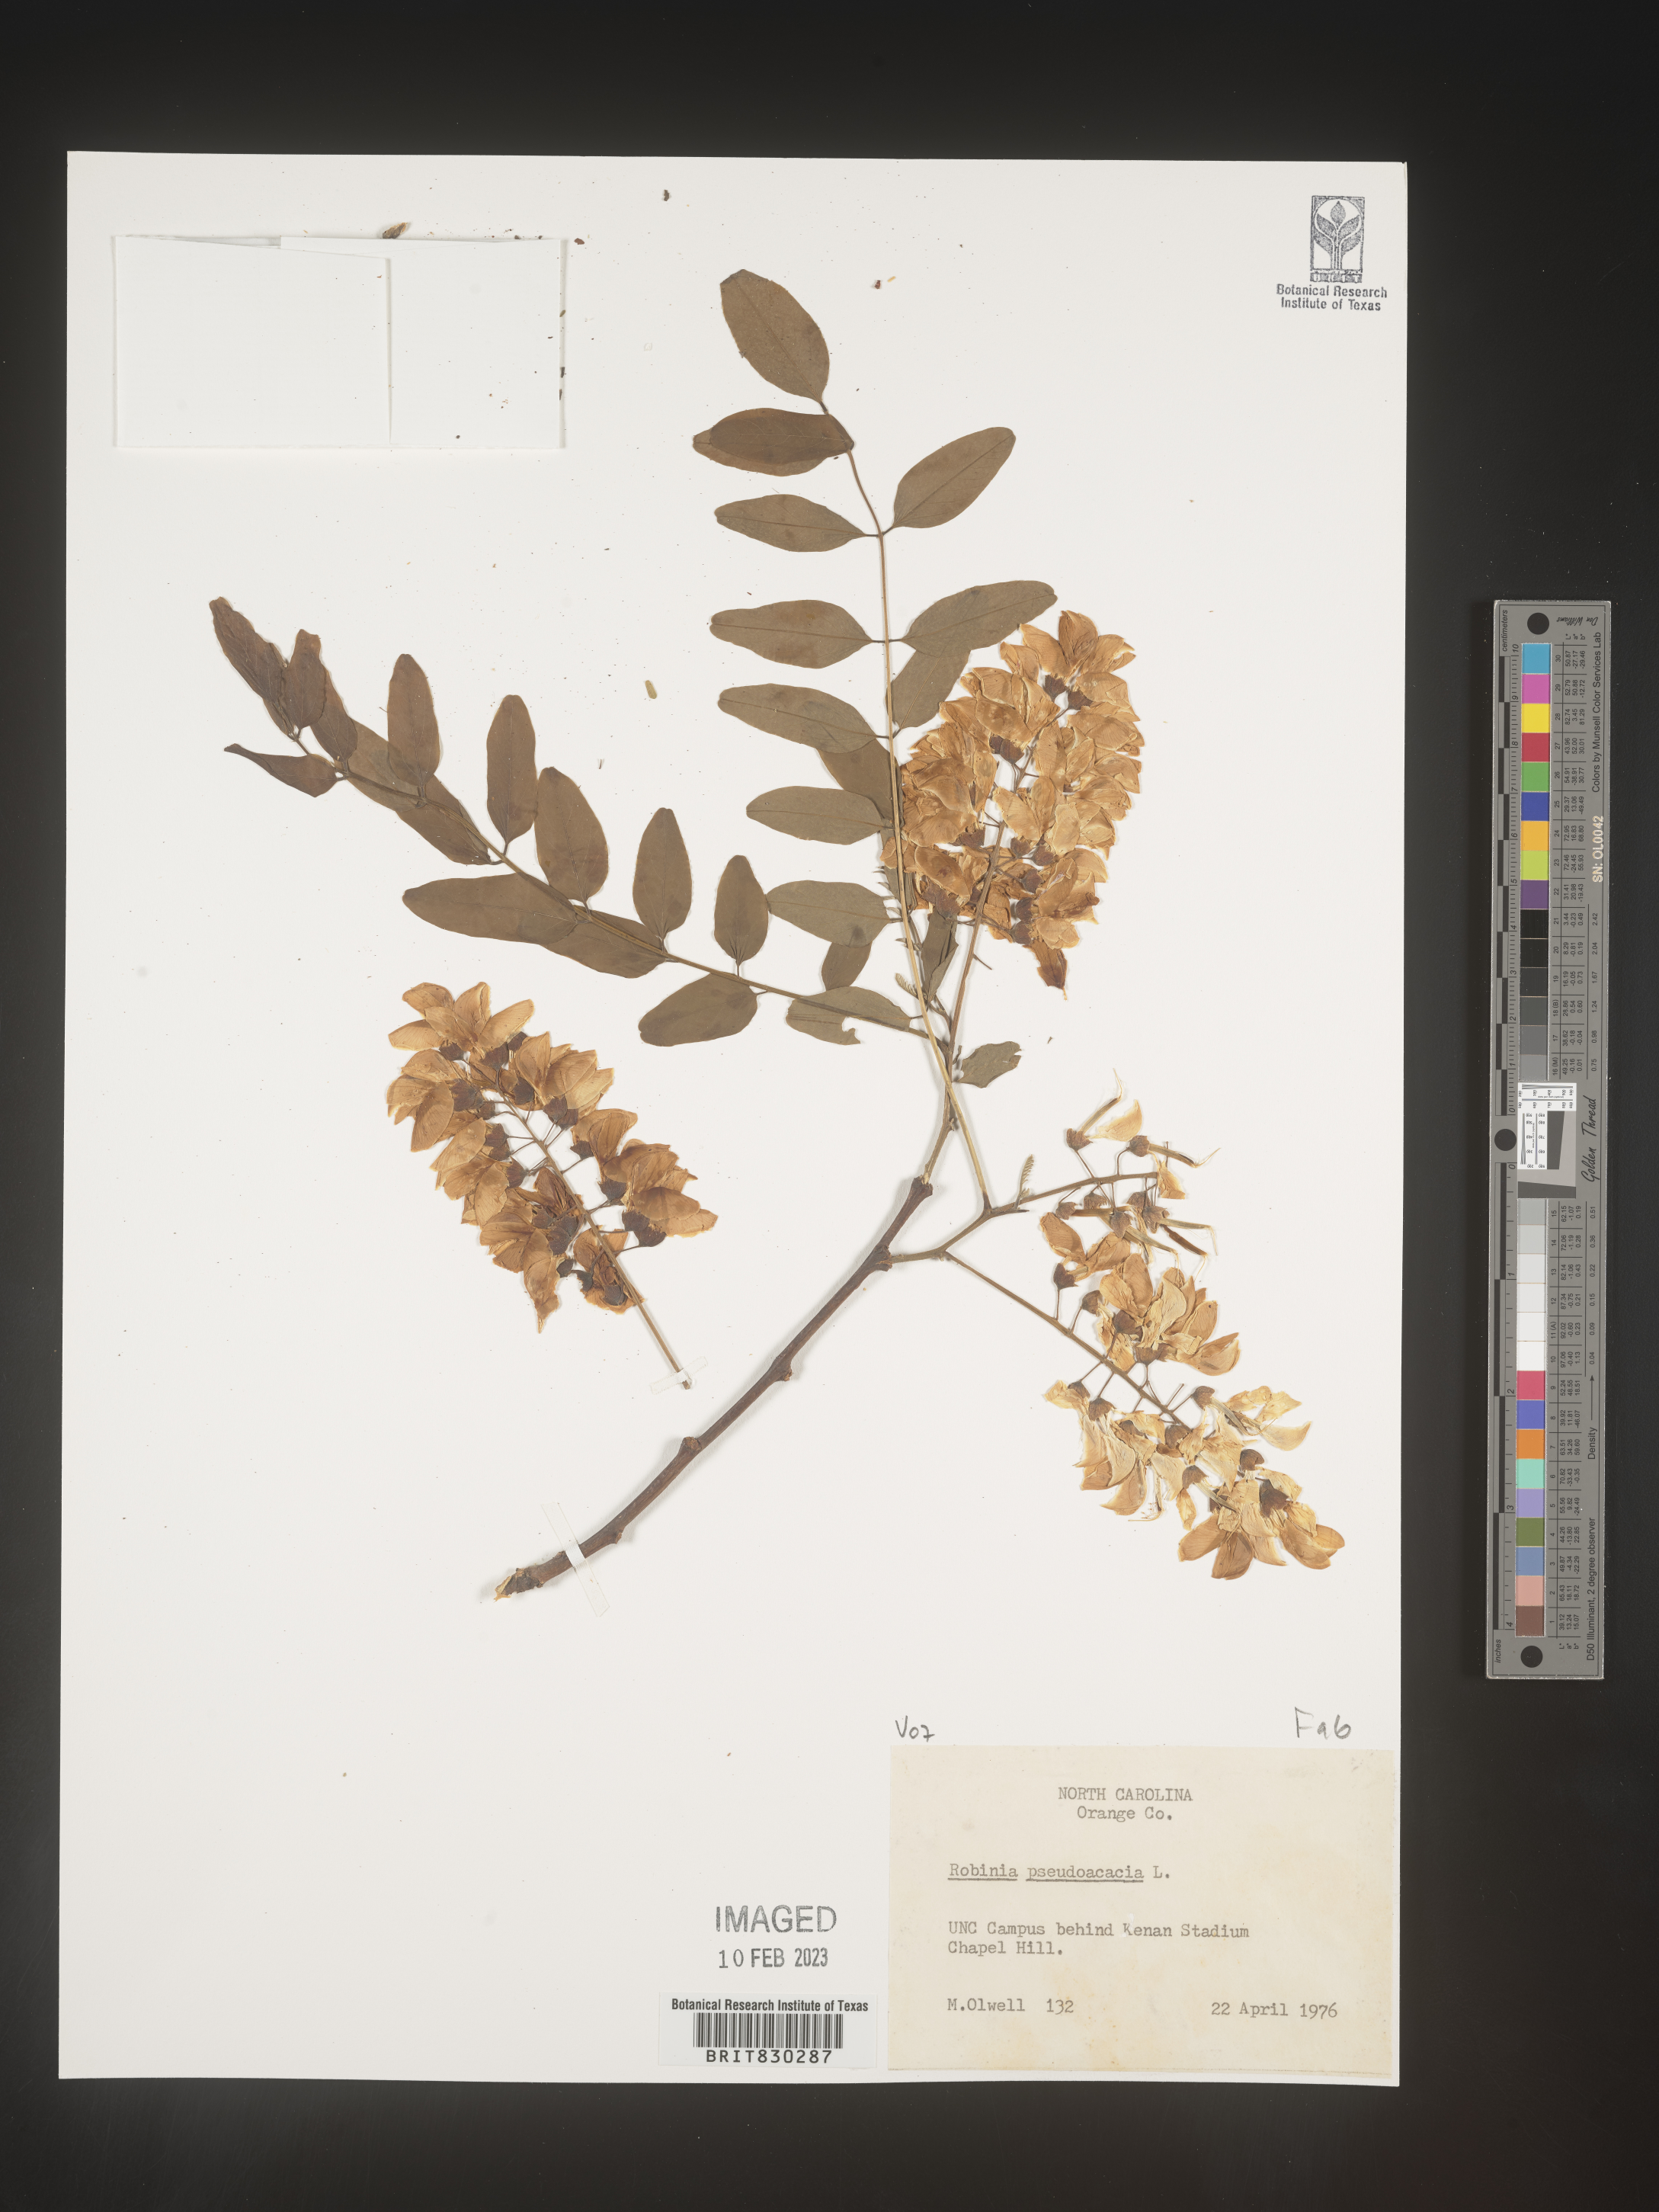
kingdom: Plantae
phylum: Tracheophyta
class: Magnoliopsida
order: Fabales
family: Fabaceae
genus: Robinia
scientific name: Robinia pseudoacacia
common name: Black locust
